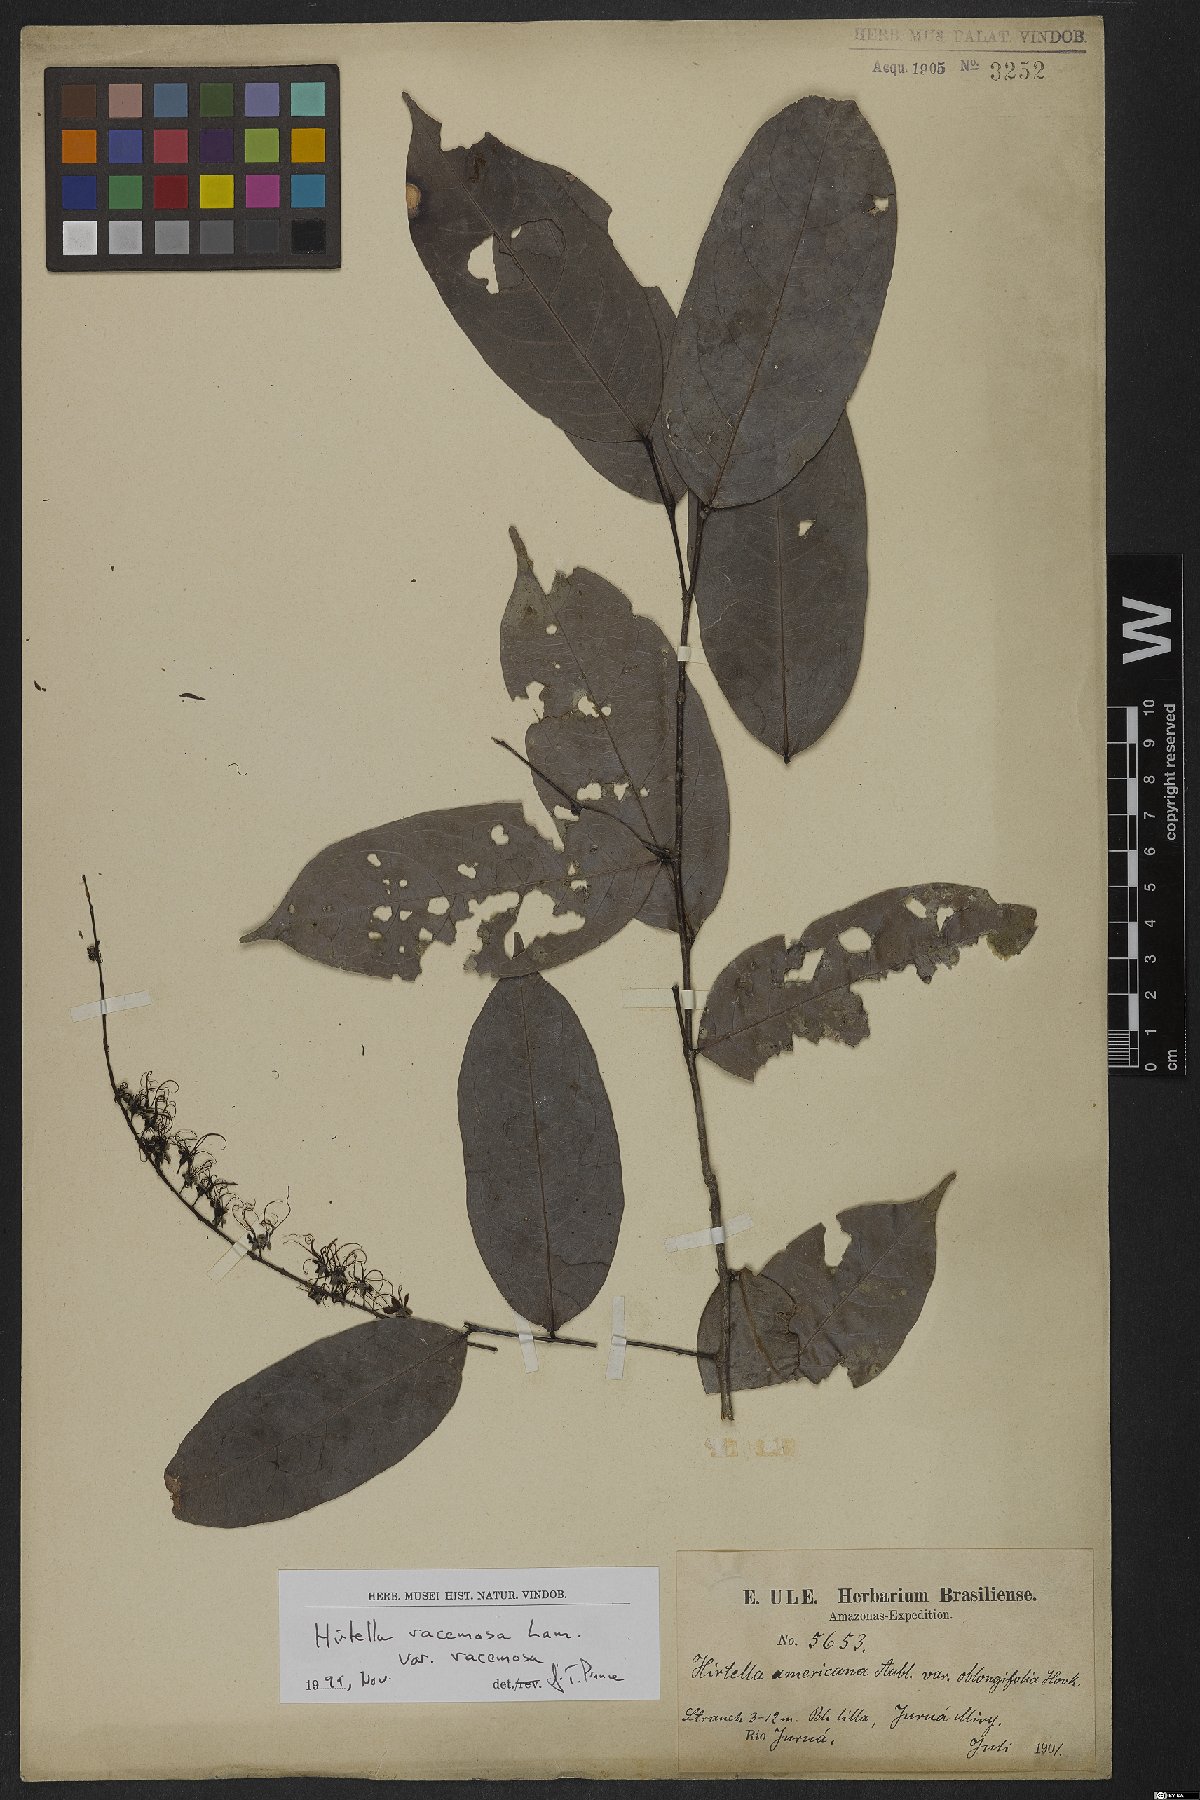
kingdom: Plantae
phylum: Tracheophyta
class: Magnoliopsida
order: Malpighiales
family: Chrysobalanaceae
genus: Hirtella
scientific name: Hirtella racemosa
